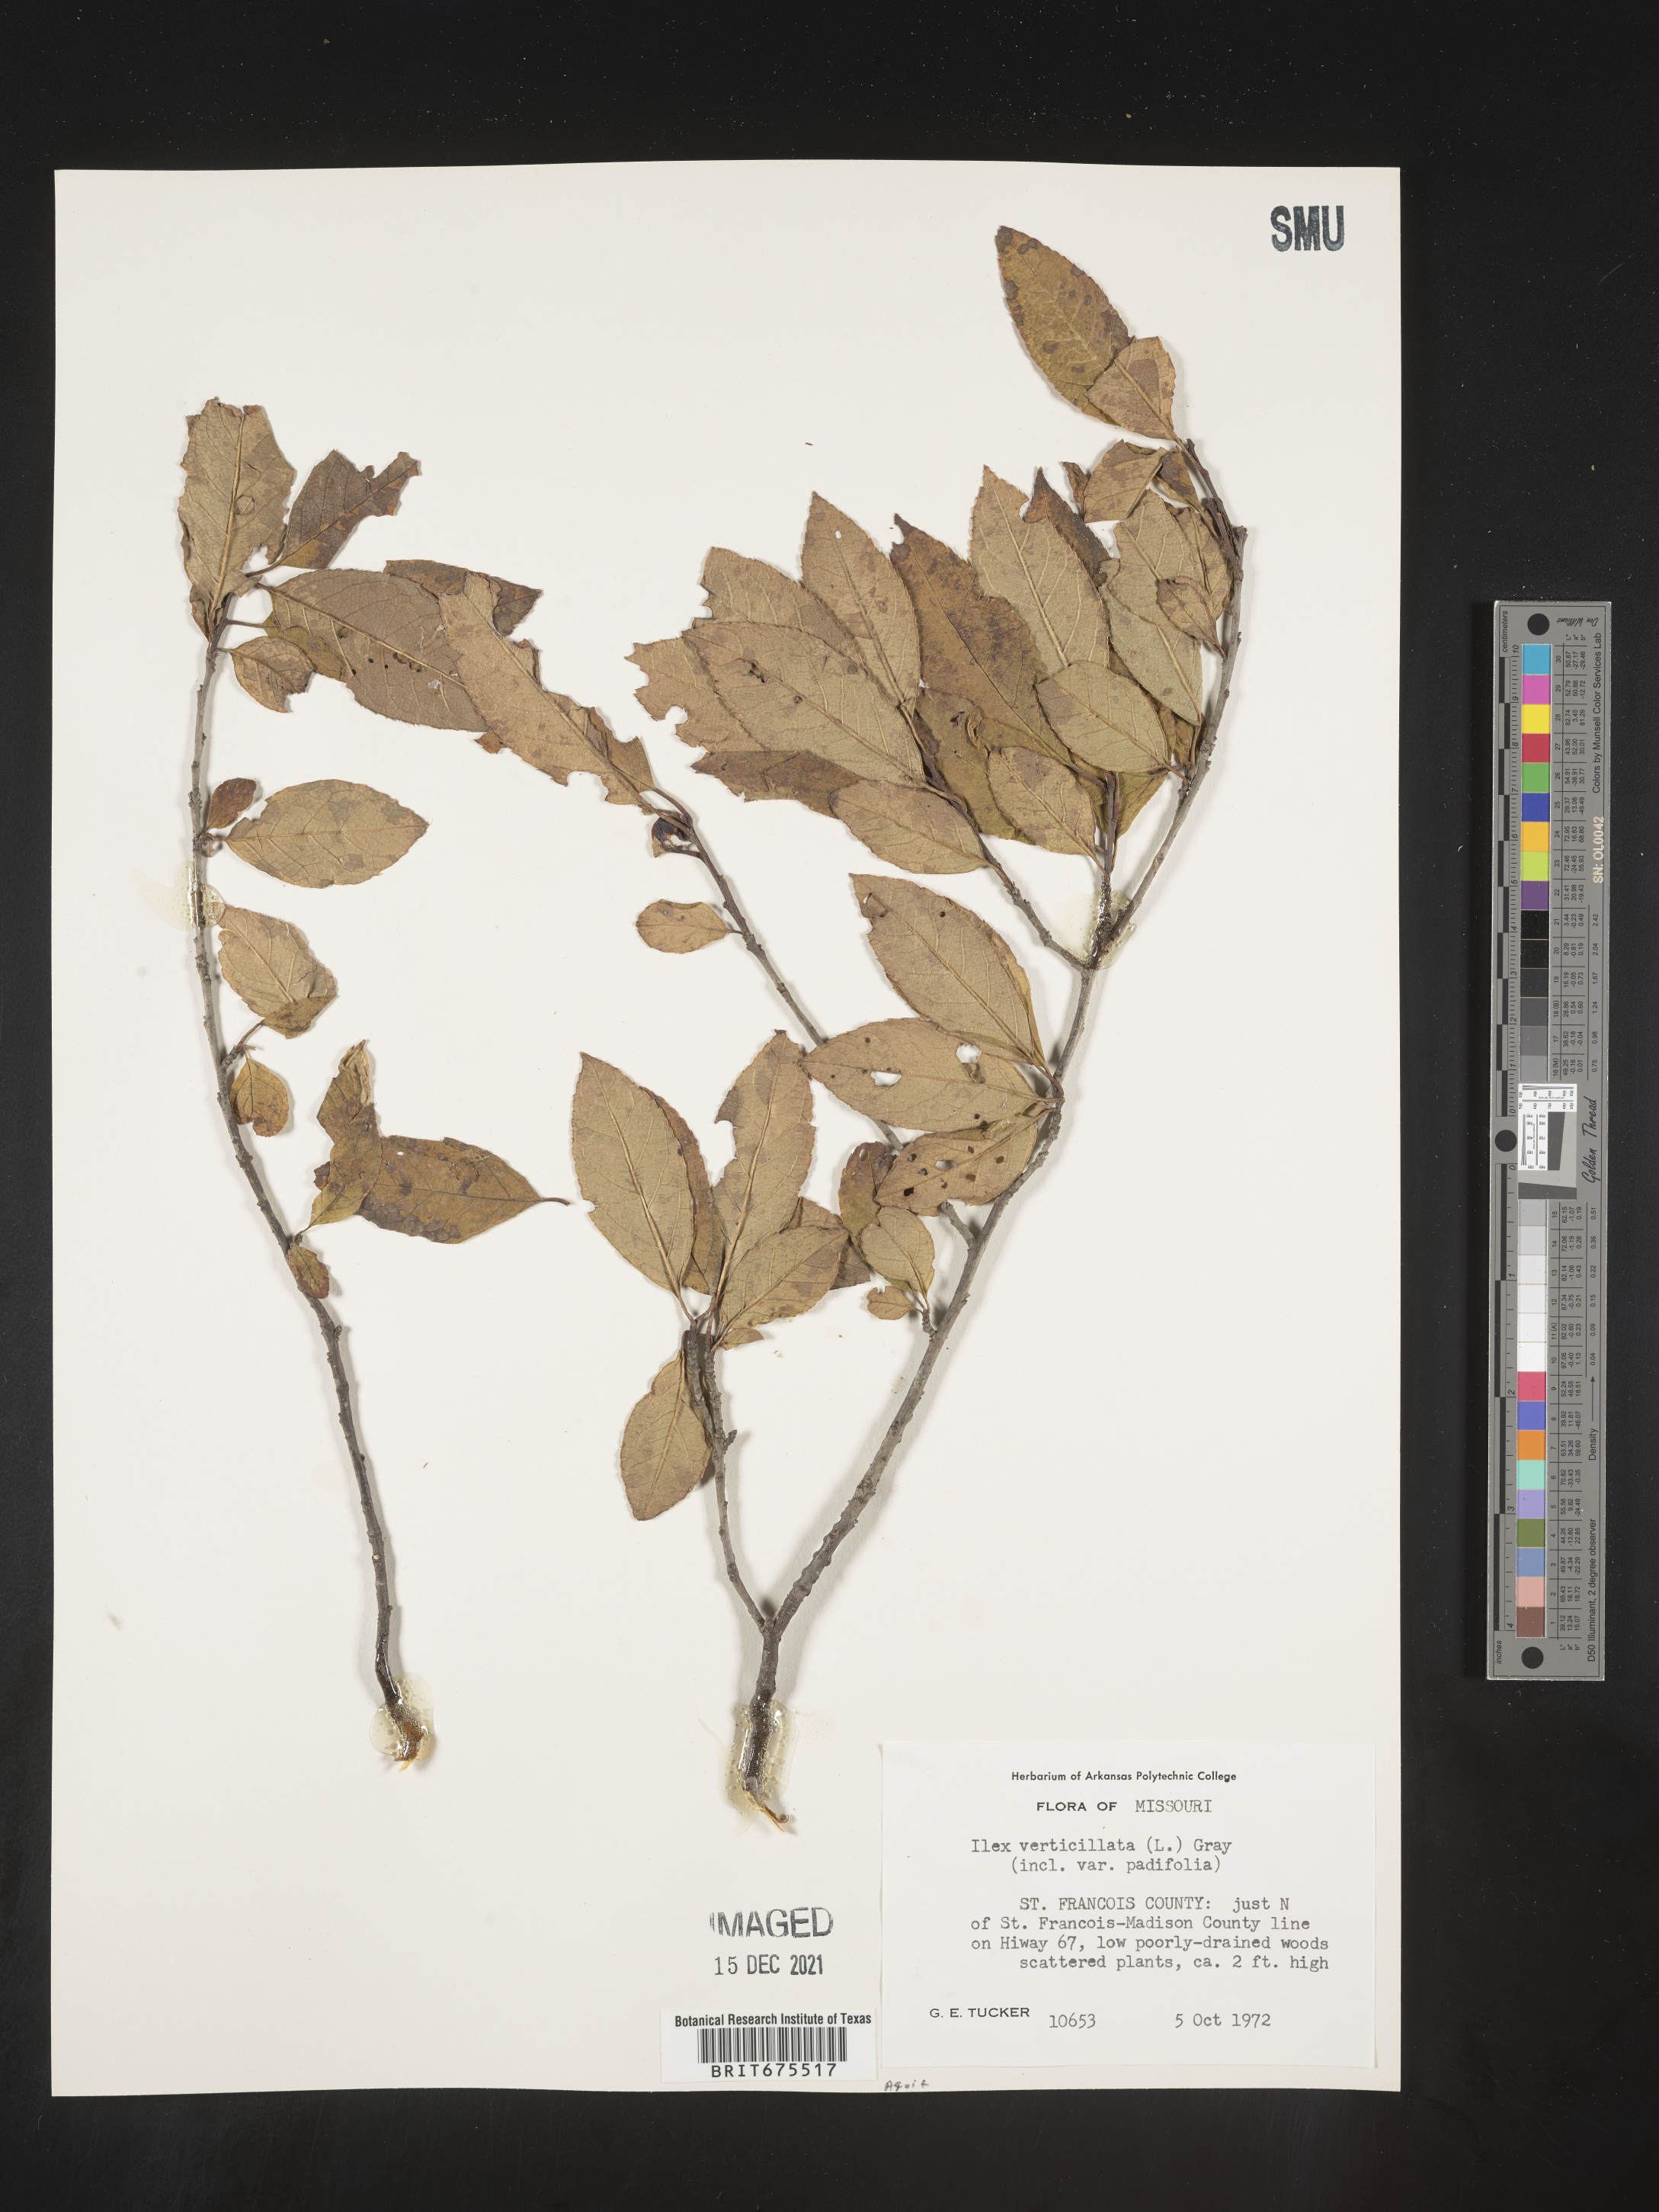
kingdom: Plantae
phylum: Tracheophyta
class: Magnoliopsida
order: Aquifoliales
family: Aquifoliaceae
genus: Ilex
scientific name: Ilex verticillata
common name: Virginia winterberry
